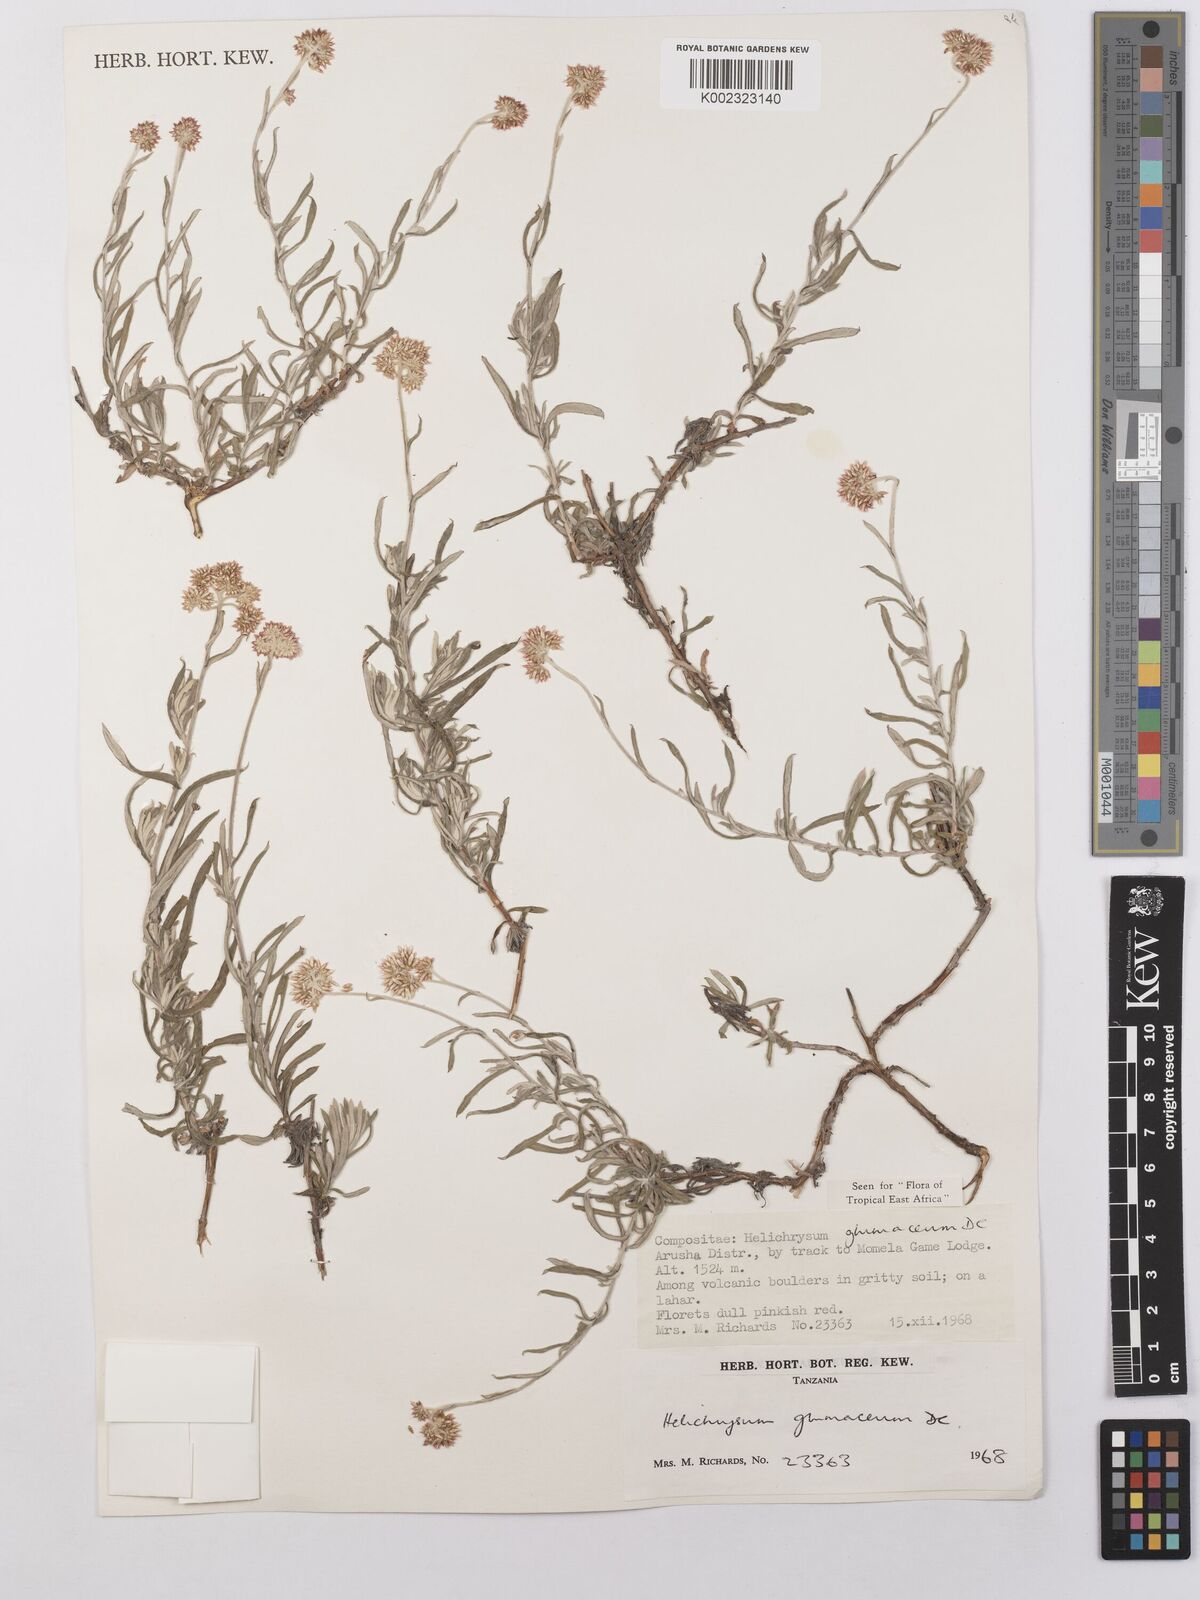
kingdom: Plantae
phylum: Tracheophyta
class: Magnoliopsida
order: Asterales
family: Asteraceae
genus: Helichrysum
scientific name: Helichrysum glumaceum
